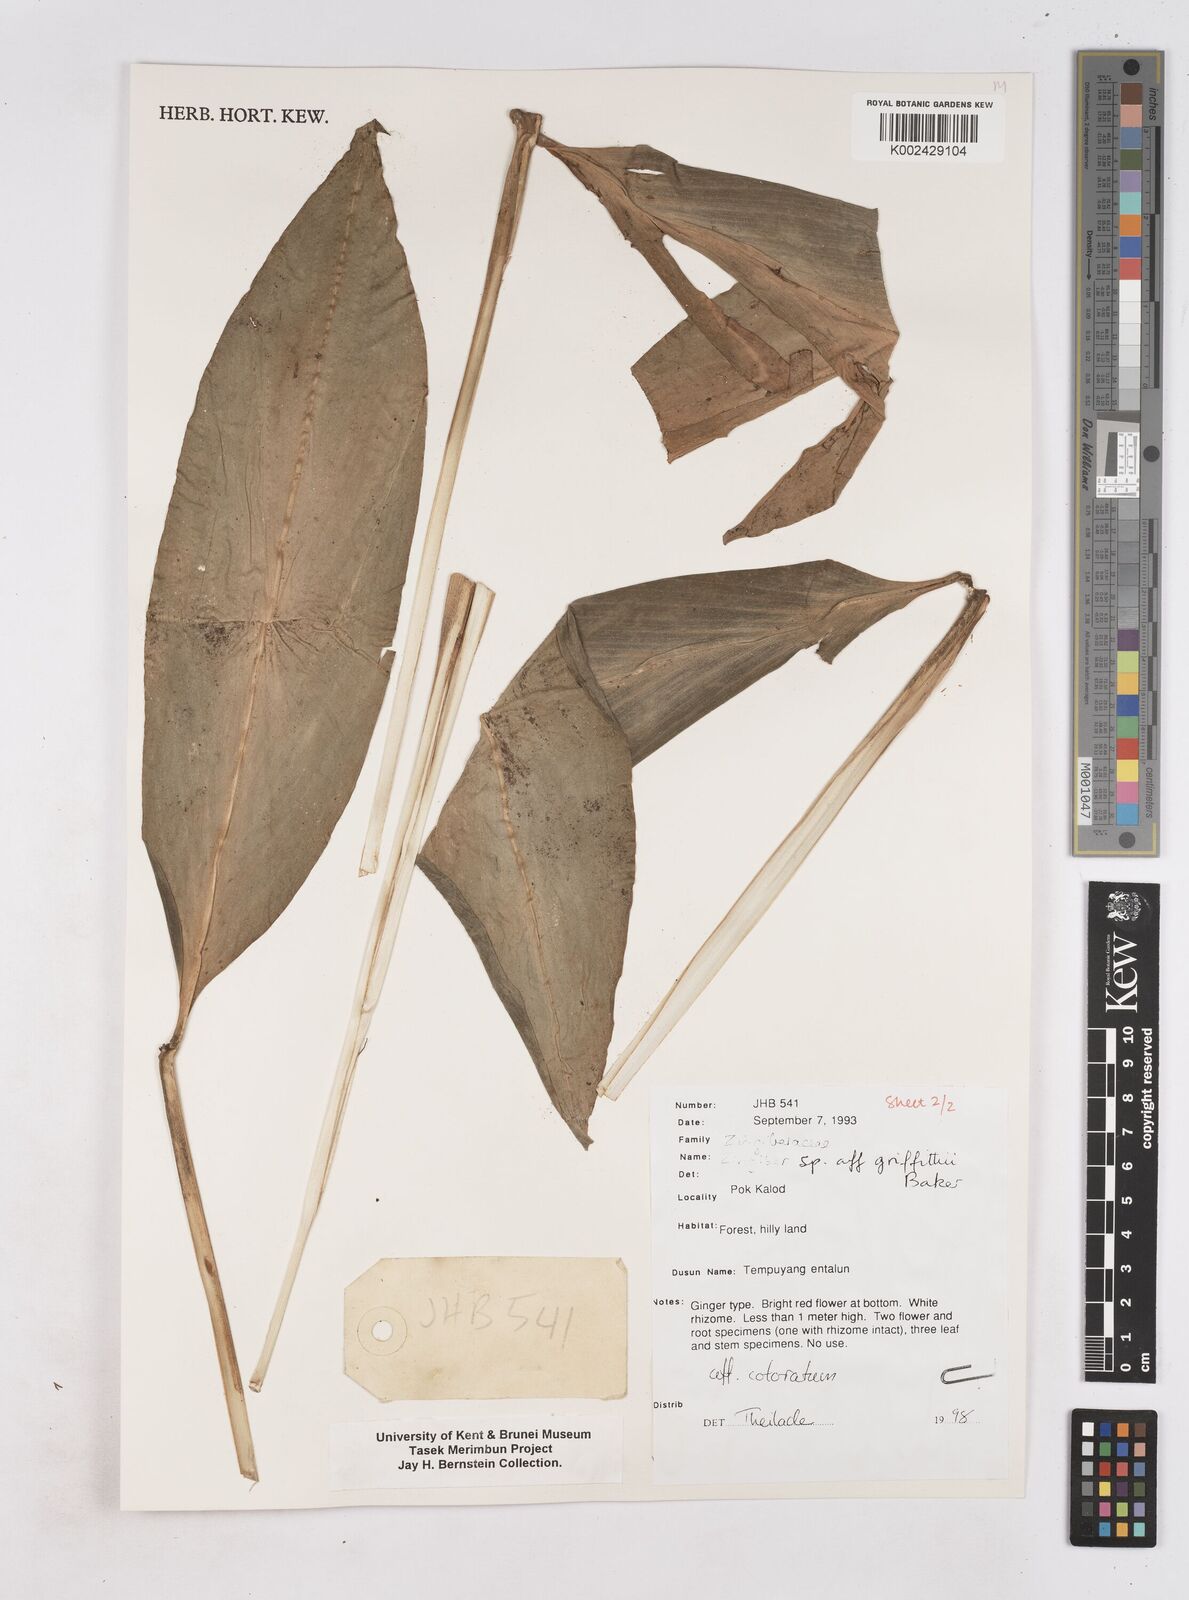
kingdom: Plantae
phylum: Tracheophyta
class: Liliopsida
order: Zingiberales
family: Zingiberaceae
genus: Zingiber
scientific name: Zingiber coloratum
